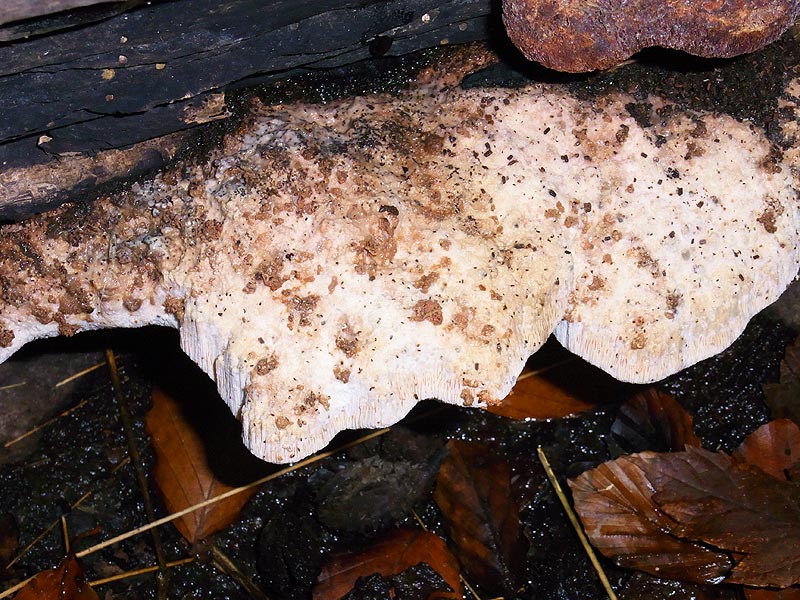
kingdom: Fungi
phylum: Basidiomycota
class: Agaricomycetes
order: Polyporales
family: Meruliaceae
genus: Pappia
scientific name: Pappia fissilis
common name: rosa fedtporesvamp
